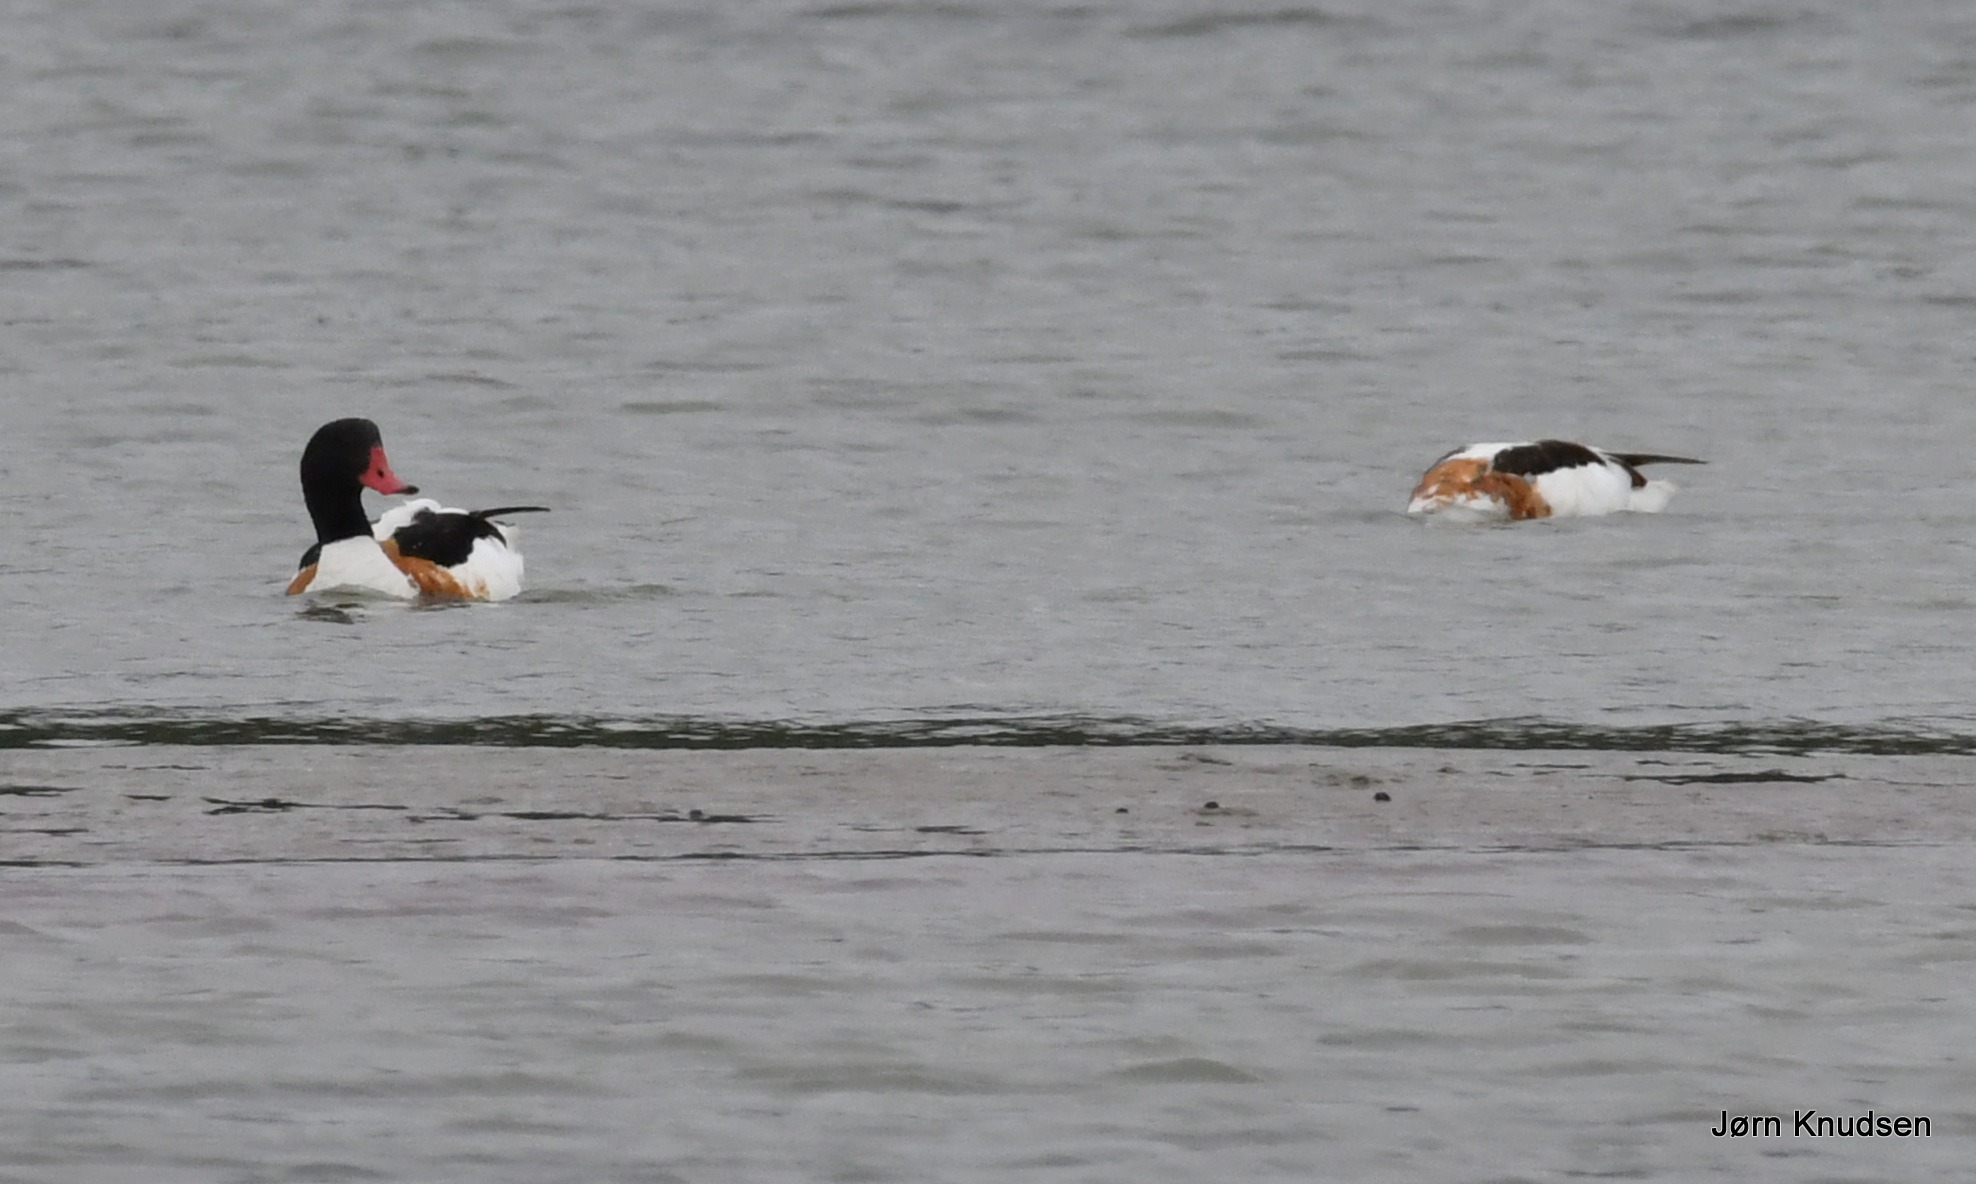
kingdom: Animalia
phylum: Chordata
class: Aves
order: Anseriformes
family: Anatidae
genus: Tadorna
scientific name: Tadorna tadorna
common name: Gravand
